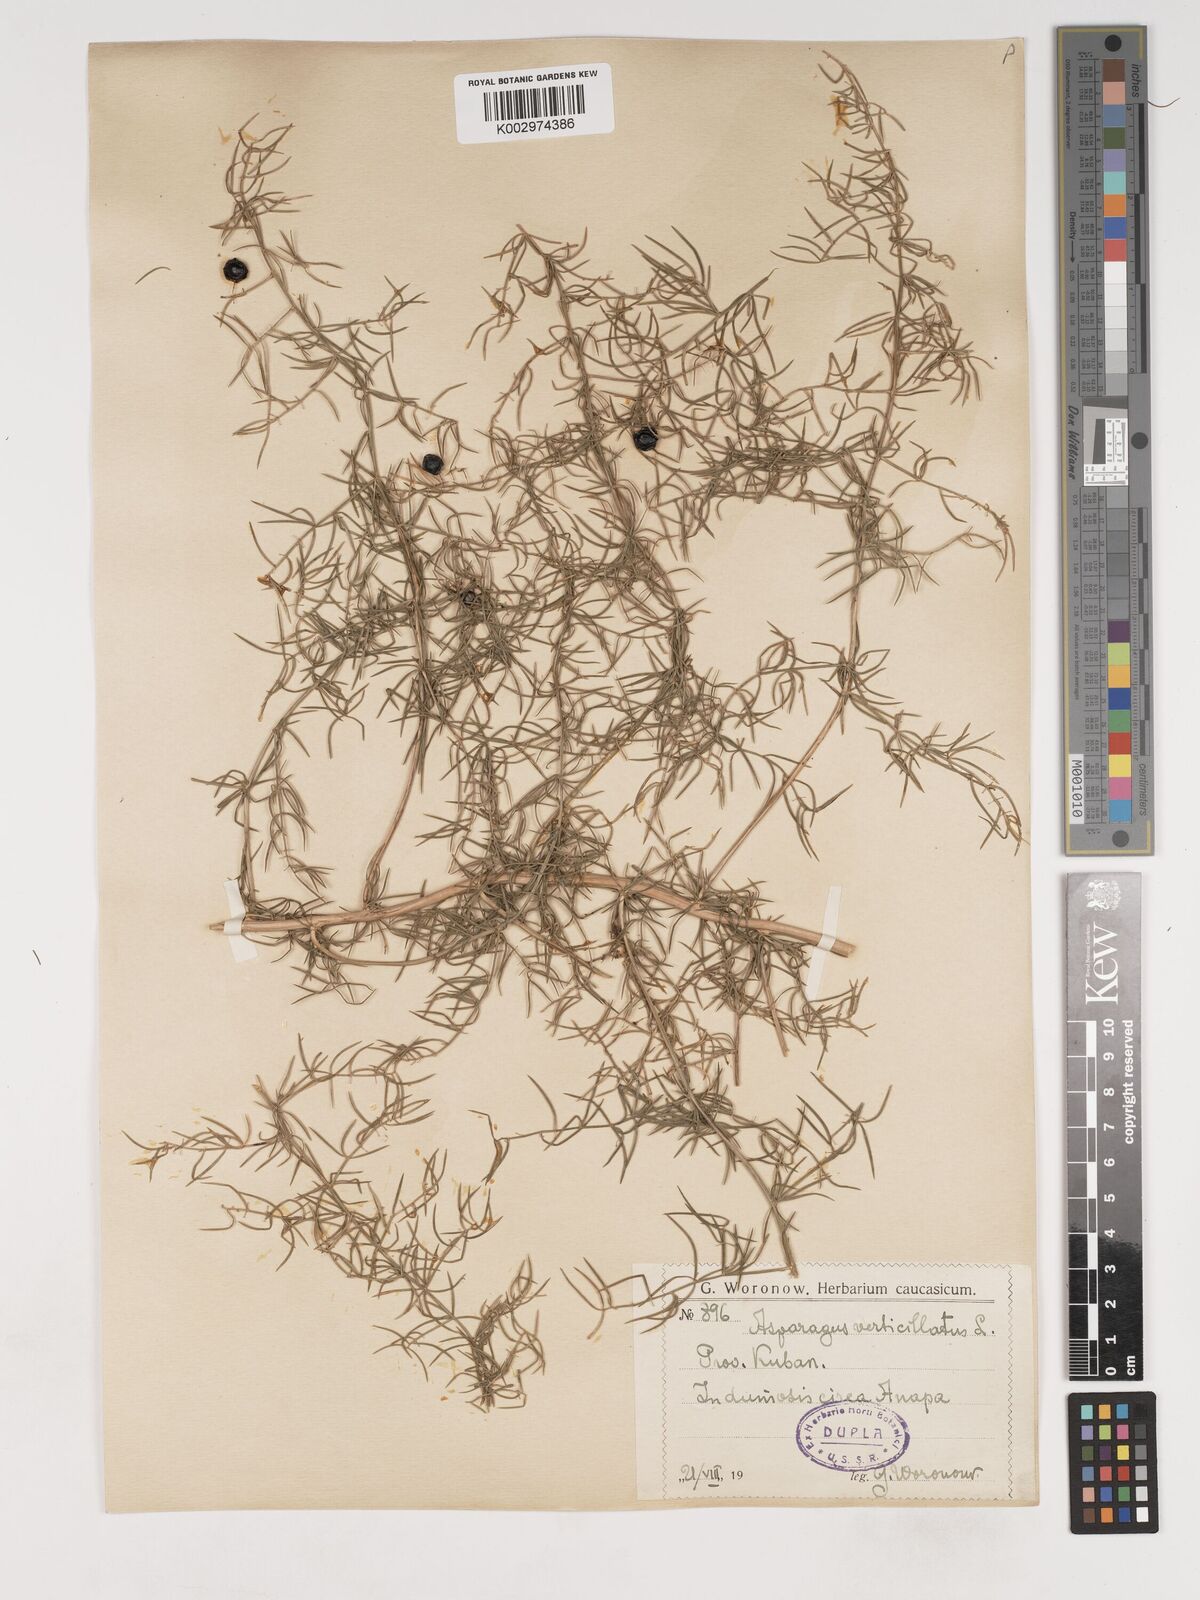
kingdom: Plantae
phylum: Tracheophyta
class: Liliopsida
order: Asparagales
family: Asparagaceae
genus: Asparagus
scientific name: Asparagus verticillatus
